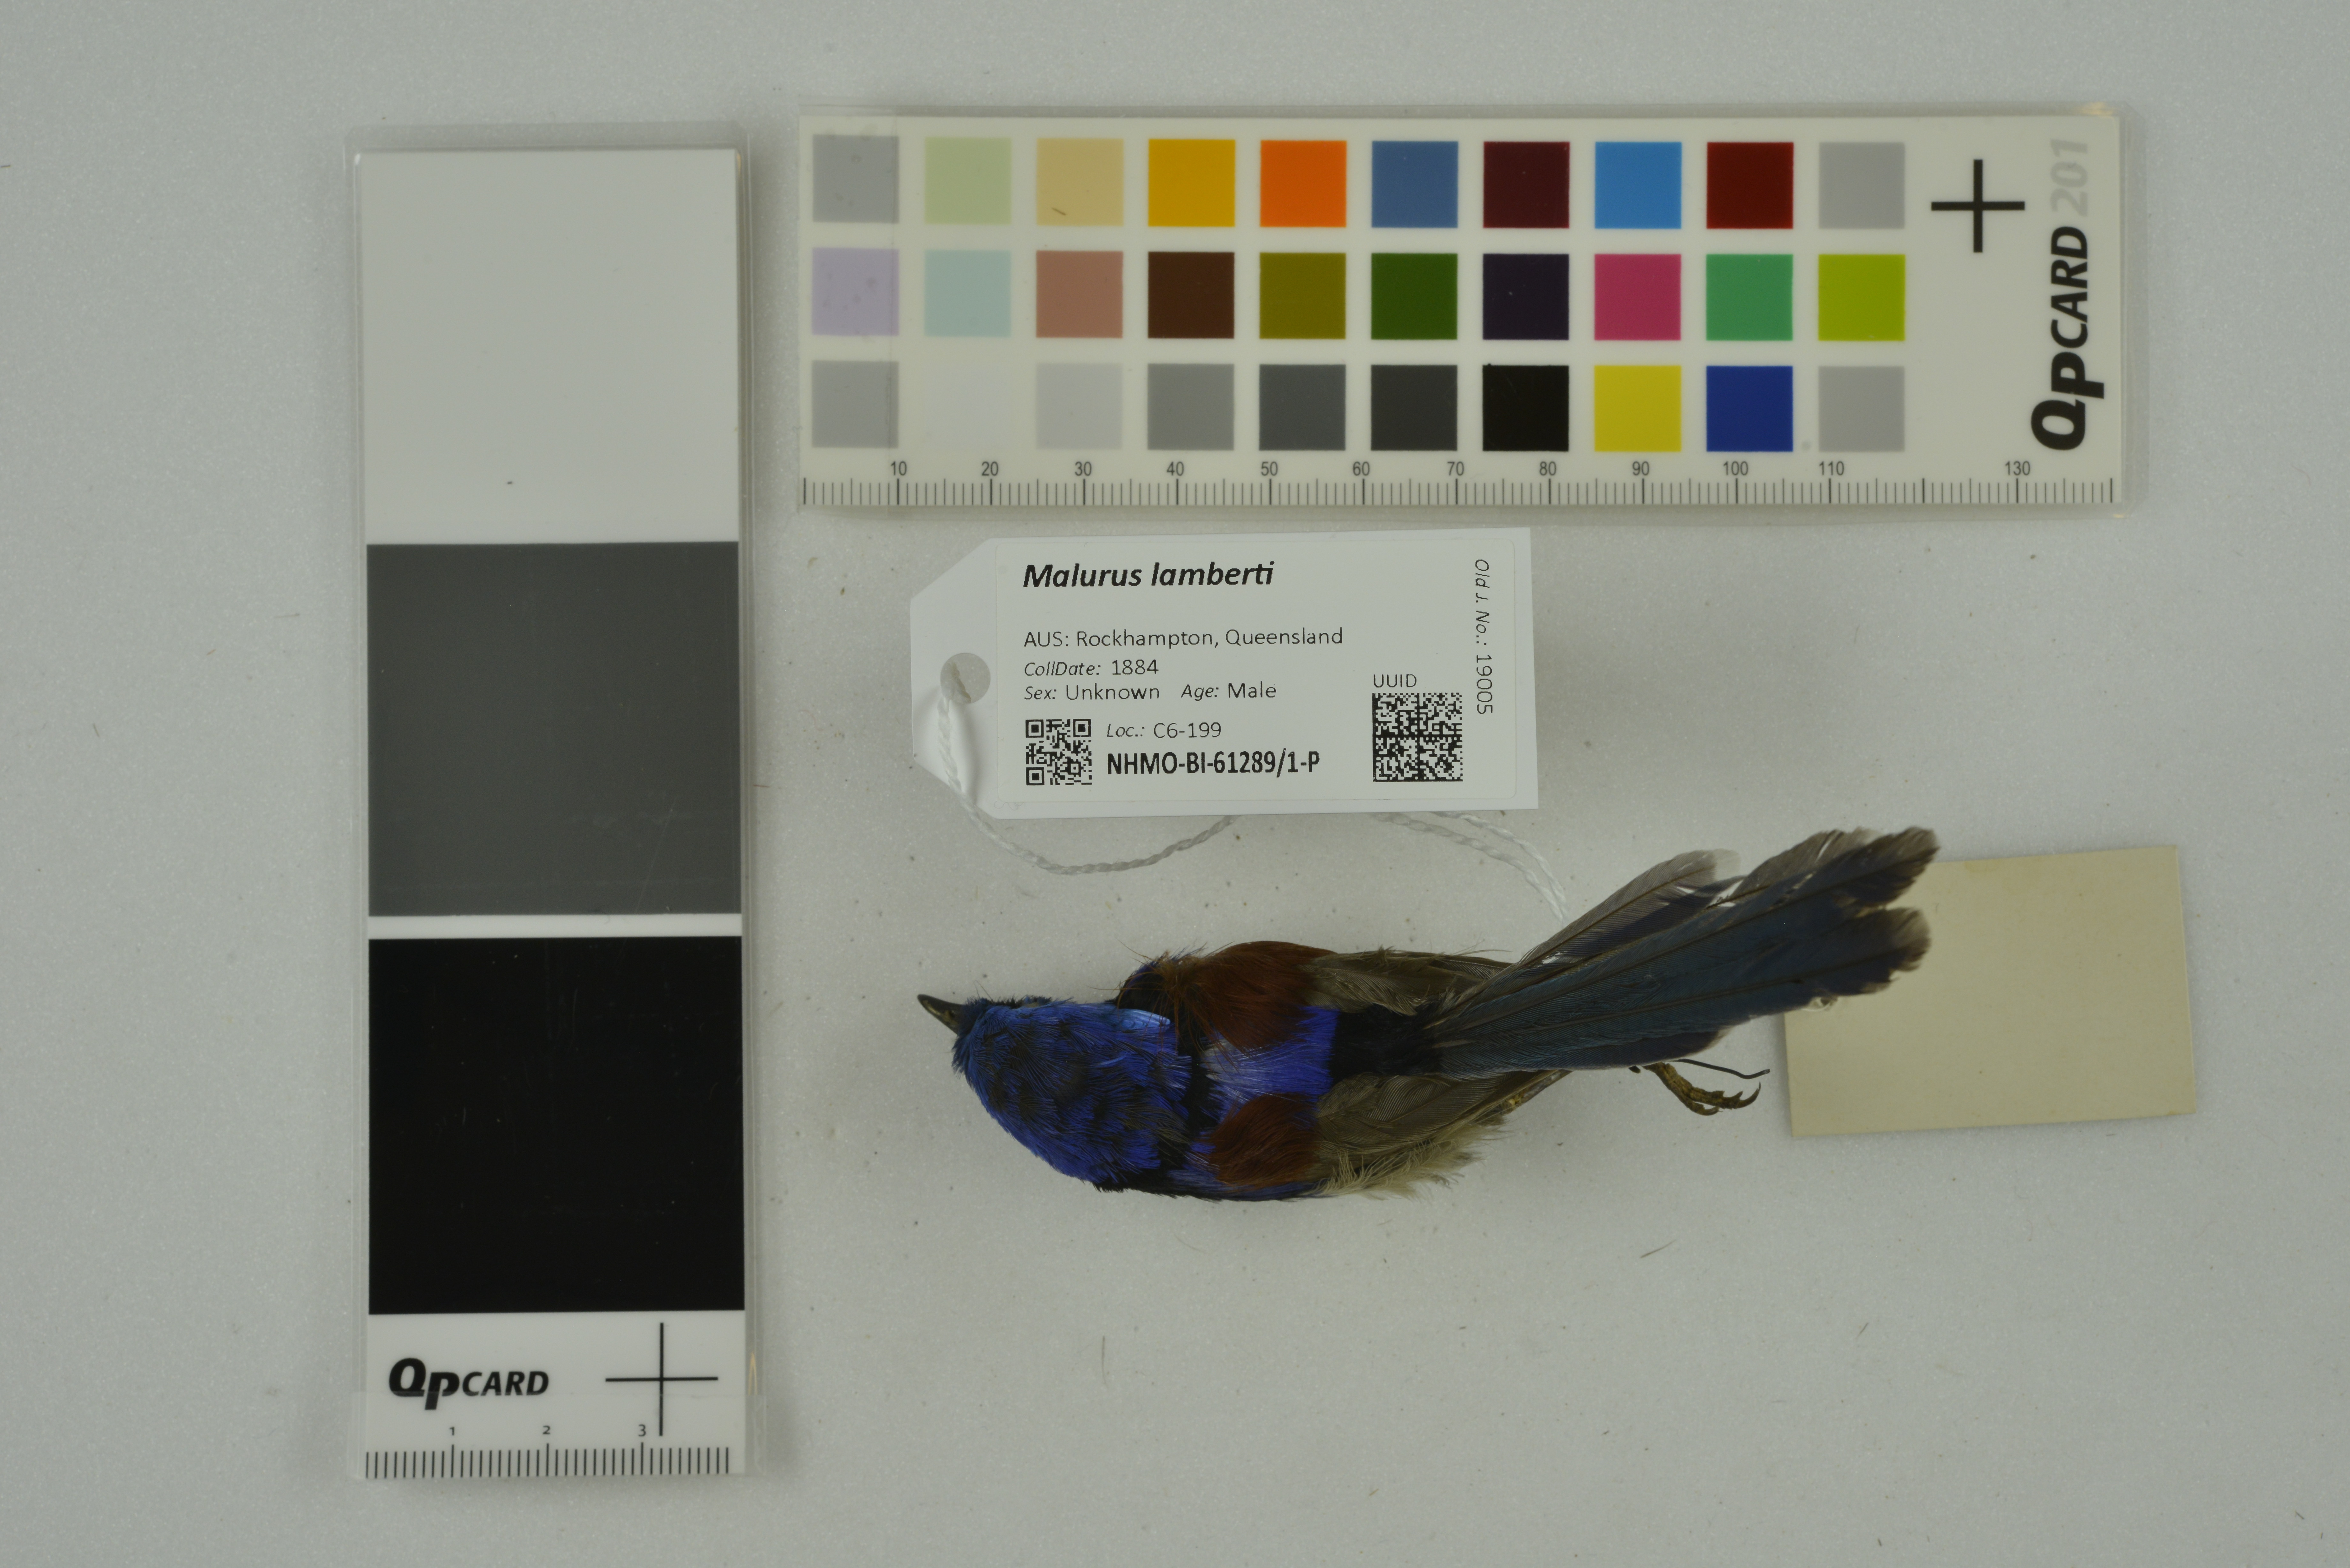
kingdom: Animalia
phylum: Chordata
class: Aves
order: Passeriformes
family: Maluridae
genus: Malurus
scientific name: Malurus lamberti
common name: Variegated fairywren
